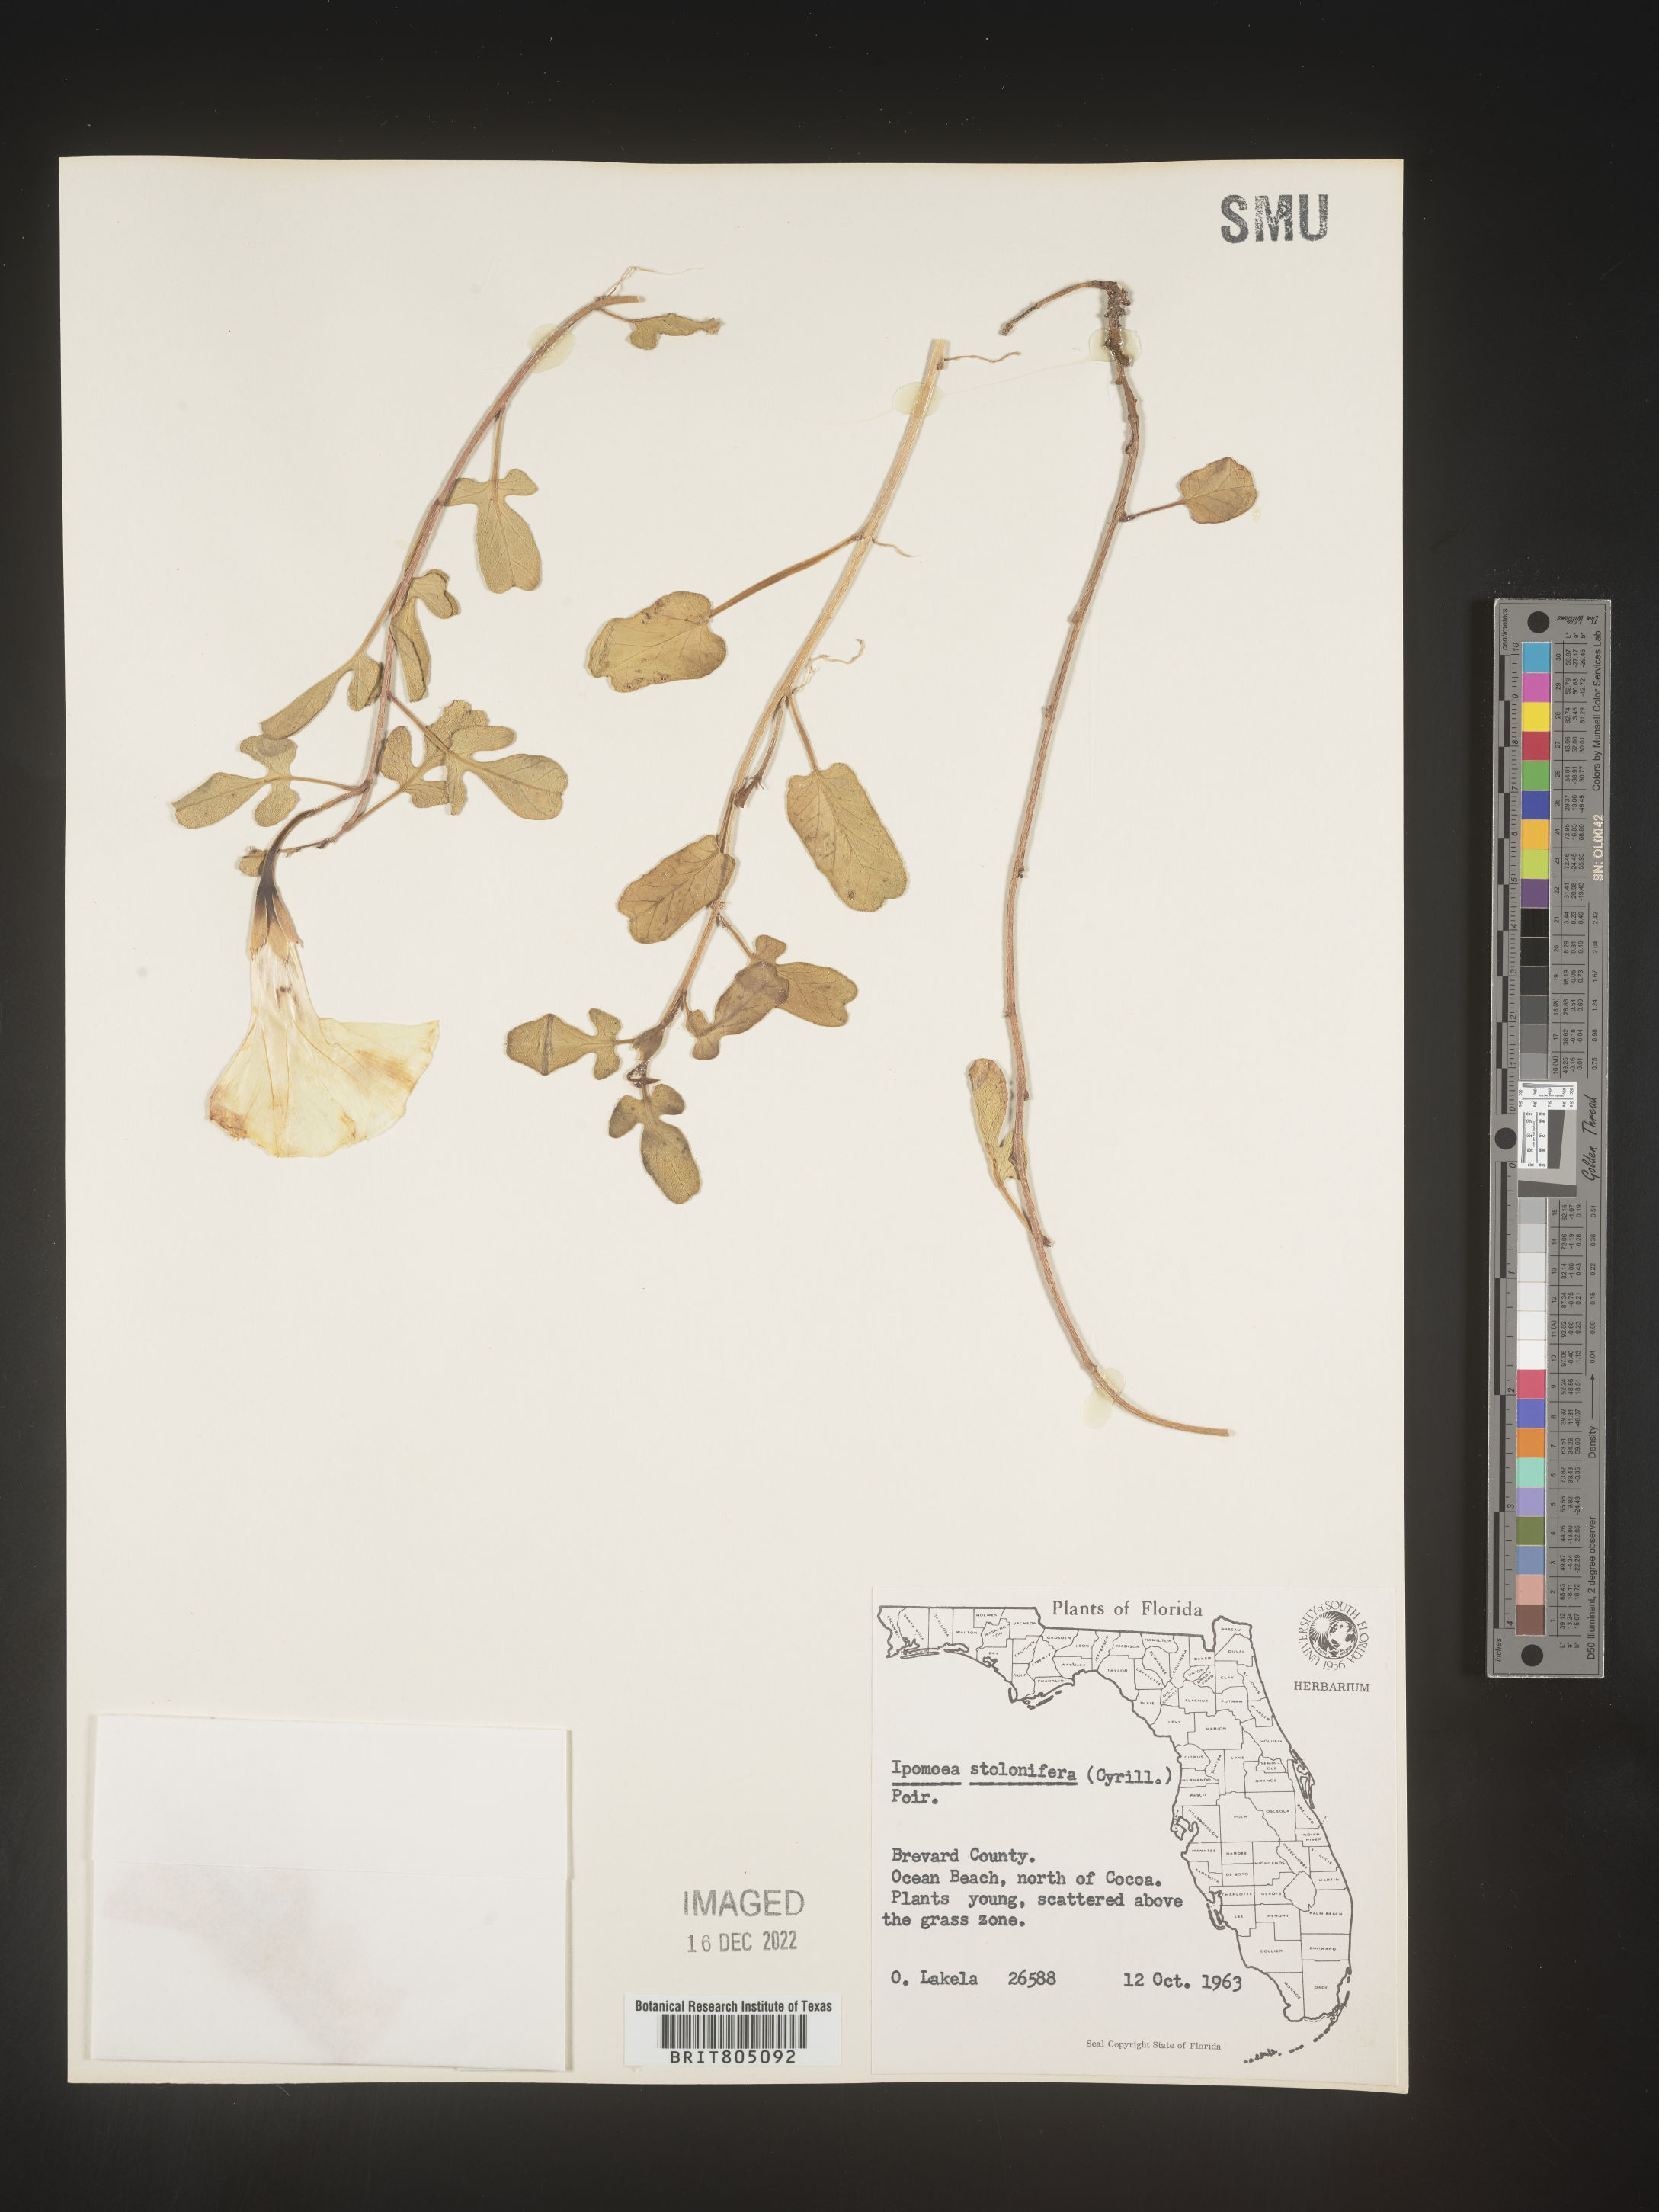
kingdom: Plantae
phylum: Tracheophyta
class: Magnoliopsida
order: Solanales
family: Convolvulaceae
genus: Ipomoea
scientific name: Ipomoea imperati
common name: Fiddle-leaf morning-glory
